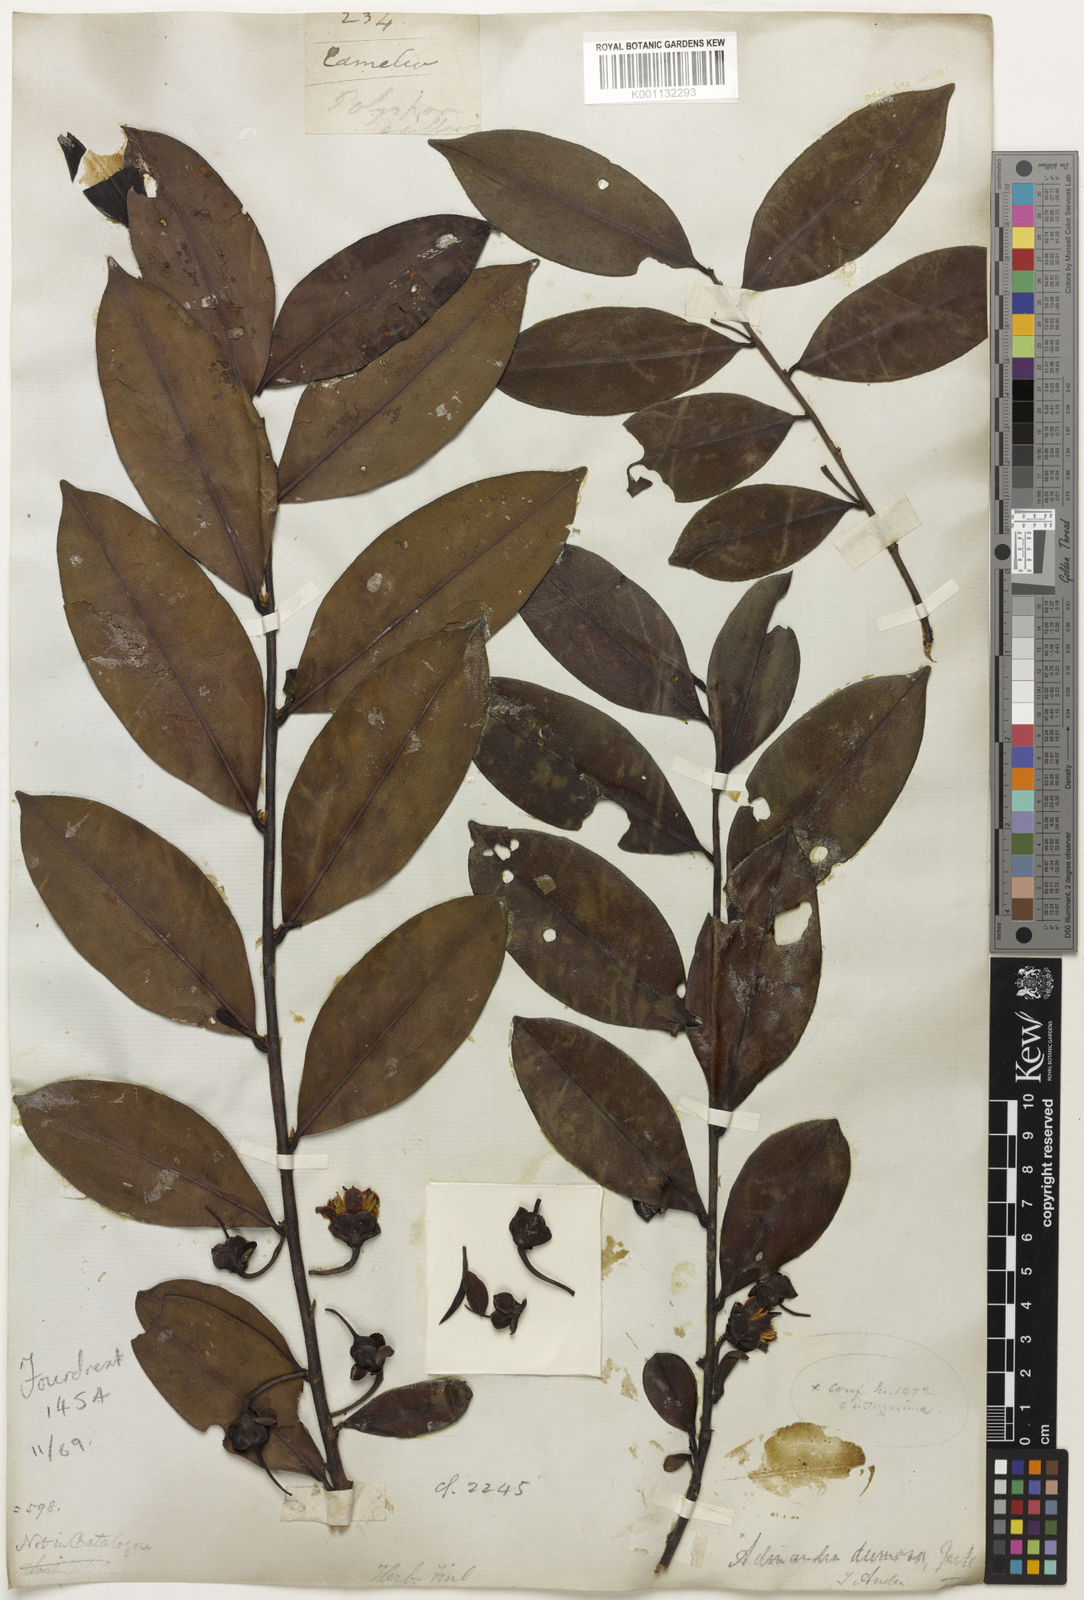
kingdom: Plantae
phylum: Tracheophyta
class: Magnoliopsida
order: Ericales
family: Theaceae
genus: Camellia
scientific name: Camellia
